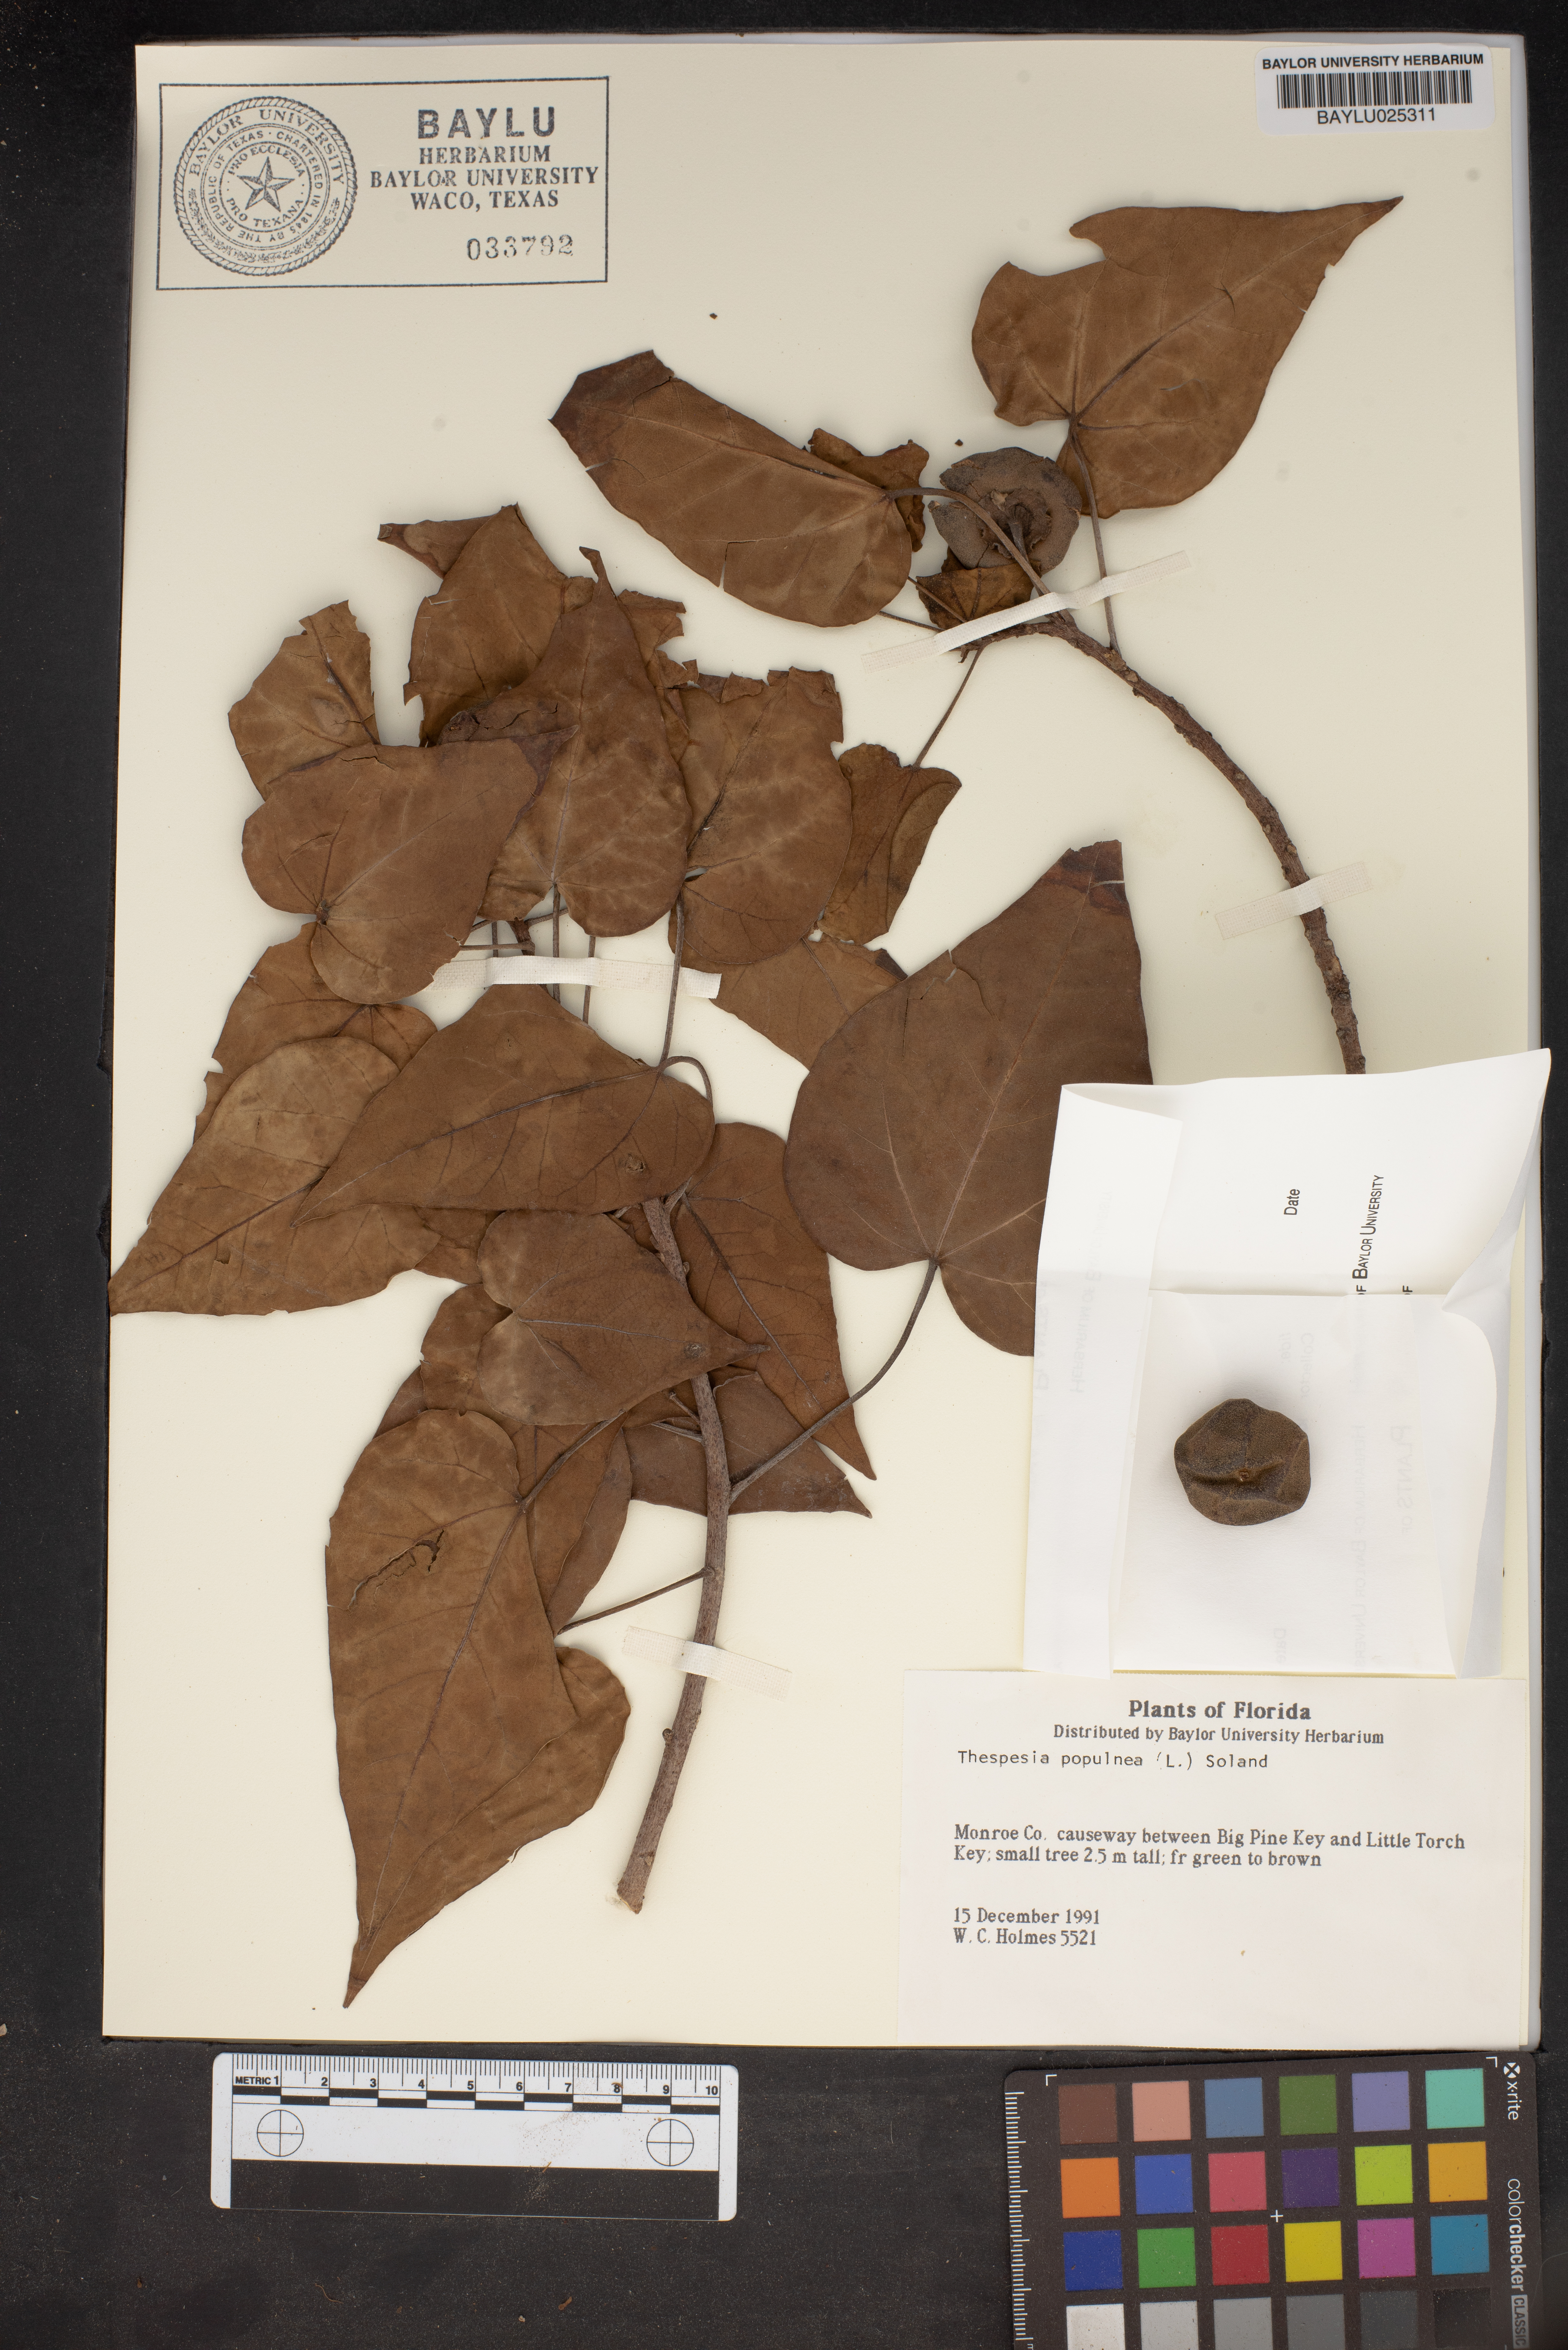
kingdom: Plantae
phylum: Tracheophyta
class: Magnoliopsida
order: Malvales
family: Malvaceae
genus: Thespesia
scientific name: Thespesia populnea
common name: Seaside mahoe
